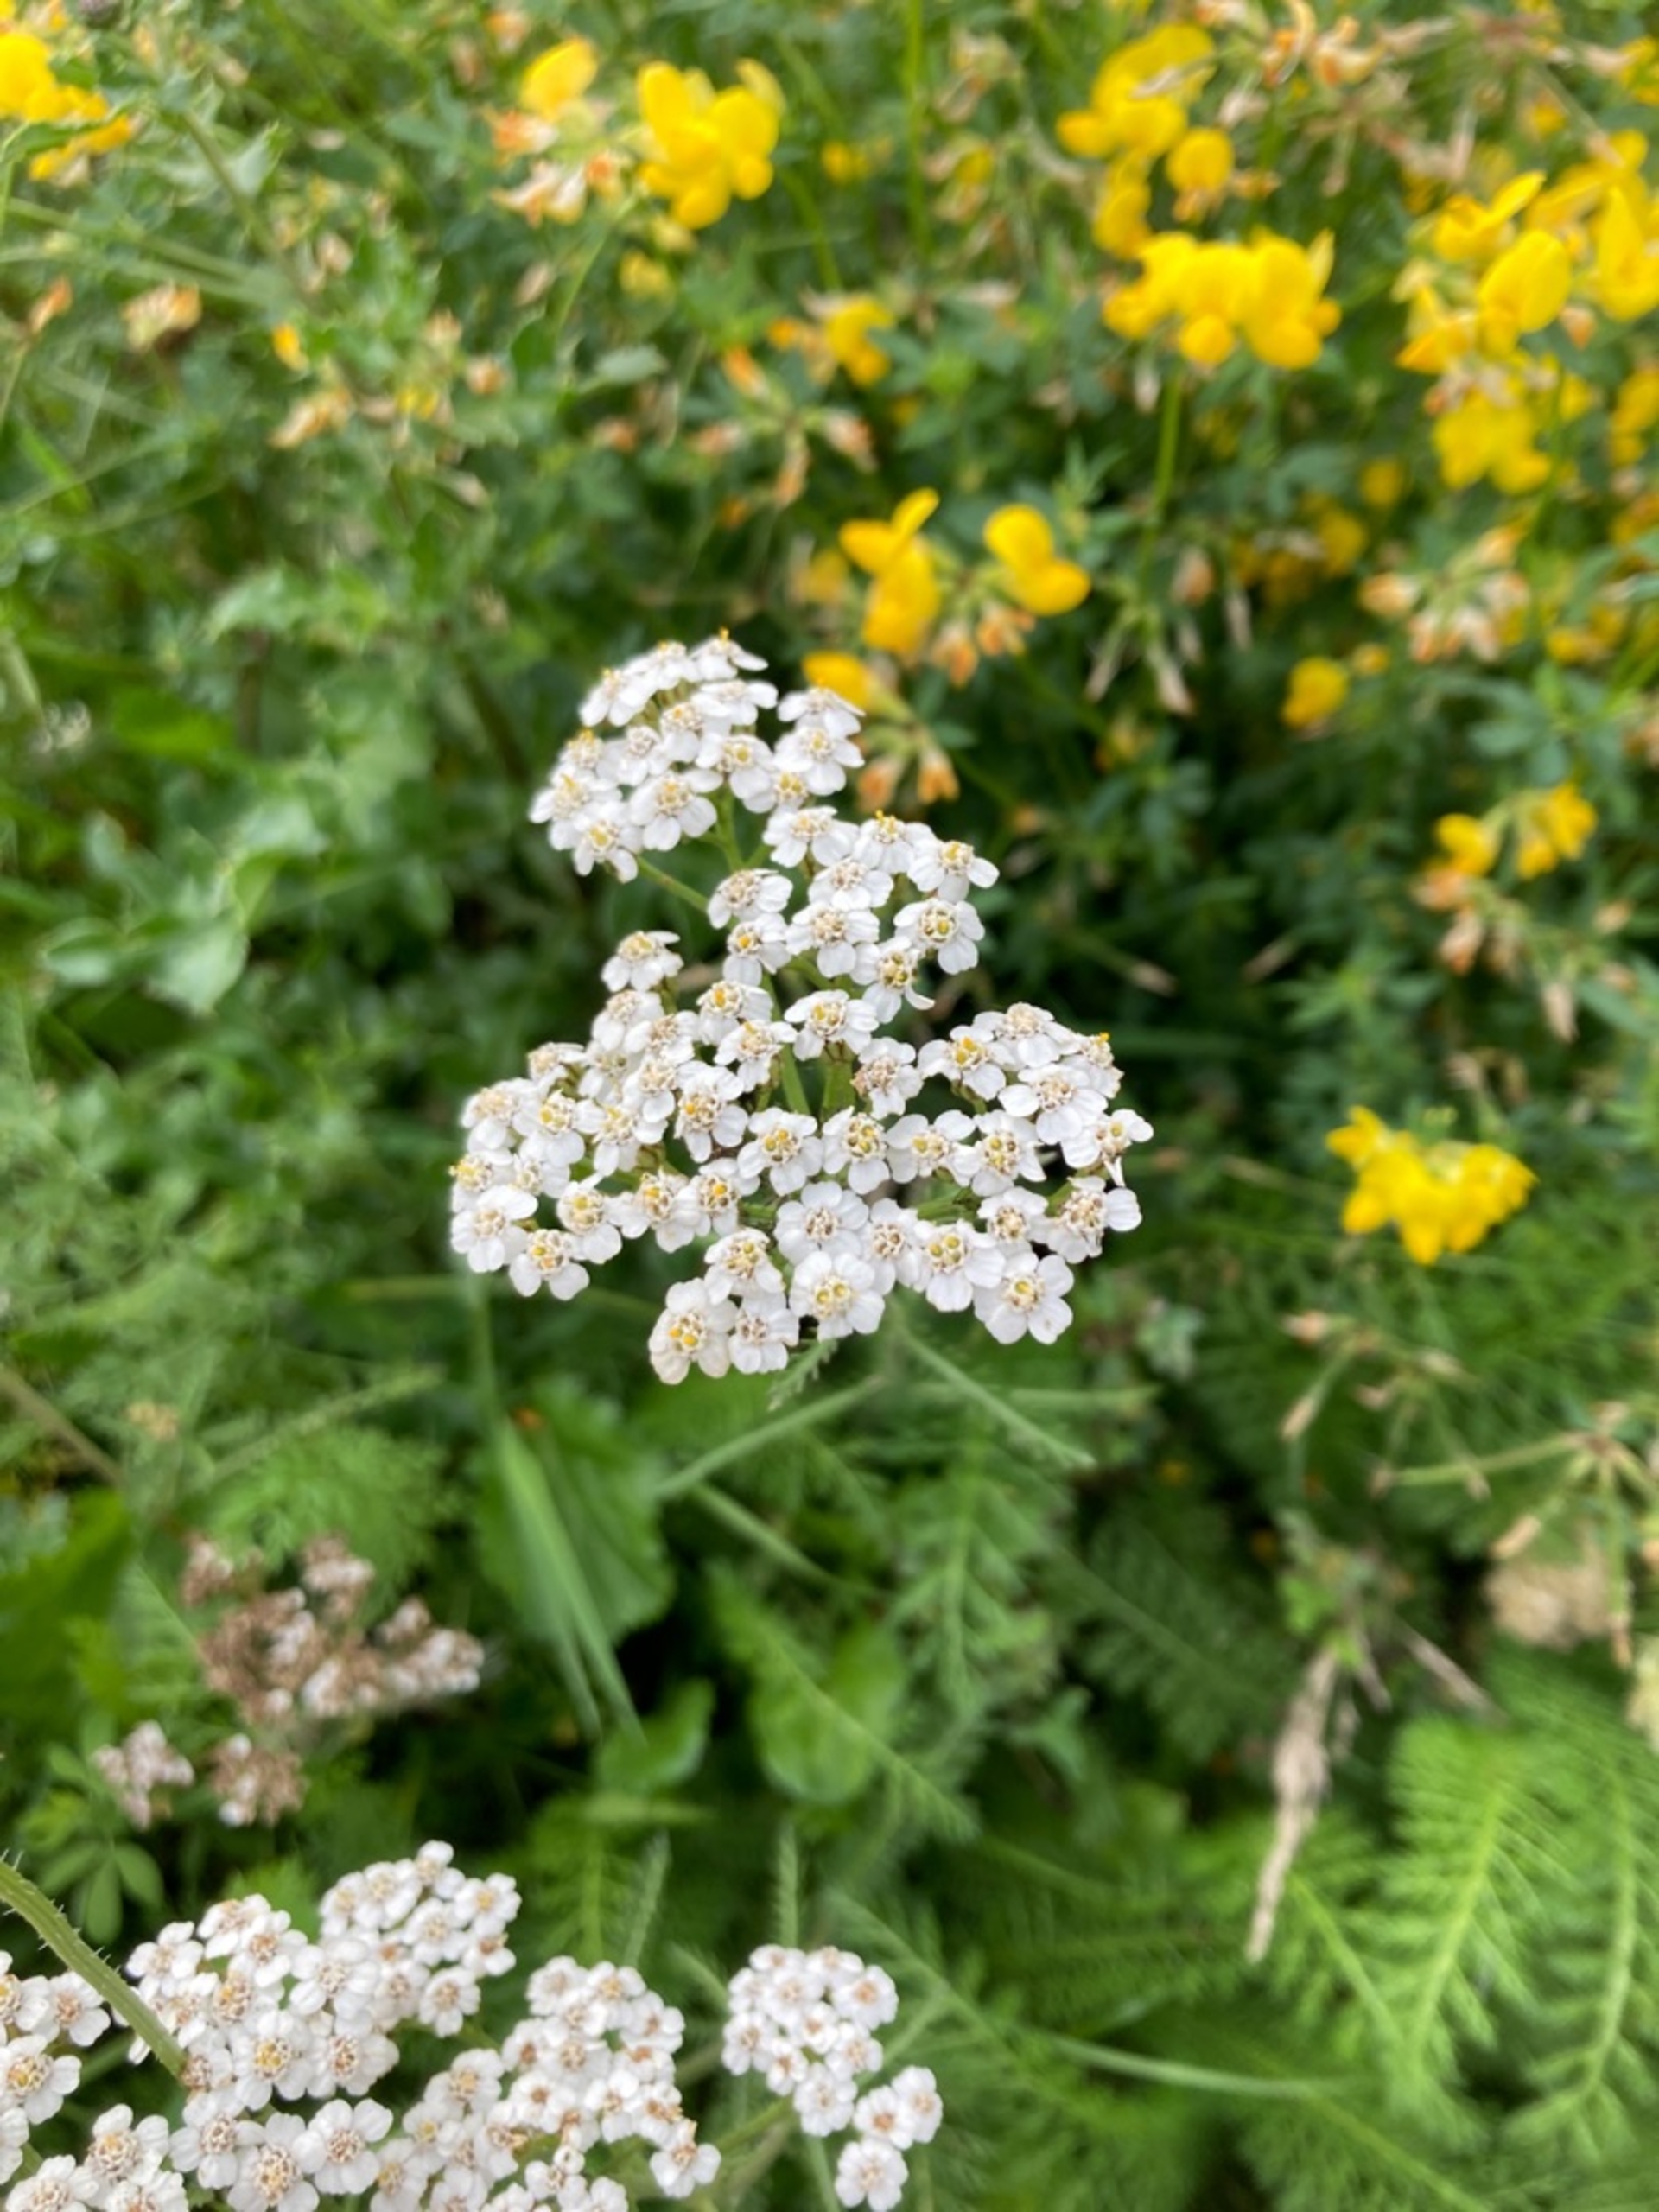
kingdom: Plantae
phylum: Tracheophyta
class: Magnoliopsida
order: Asterales
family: Asteraceae
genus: Achillea
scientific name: Achillea millefolium
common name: Almindelig røllike
